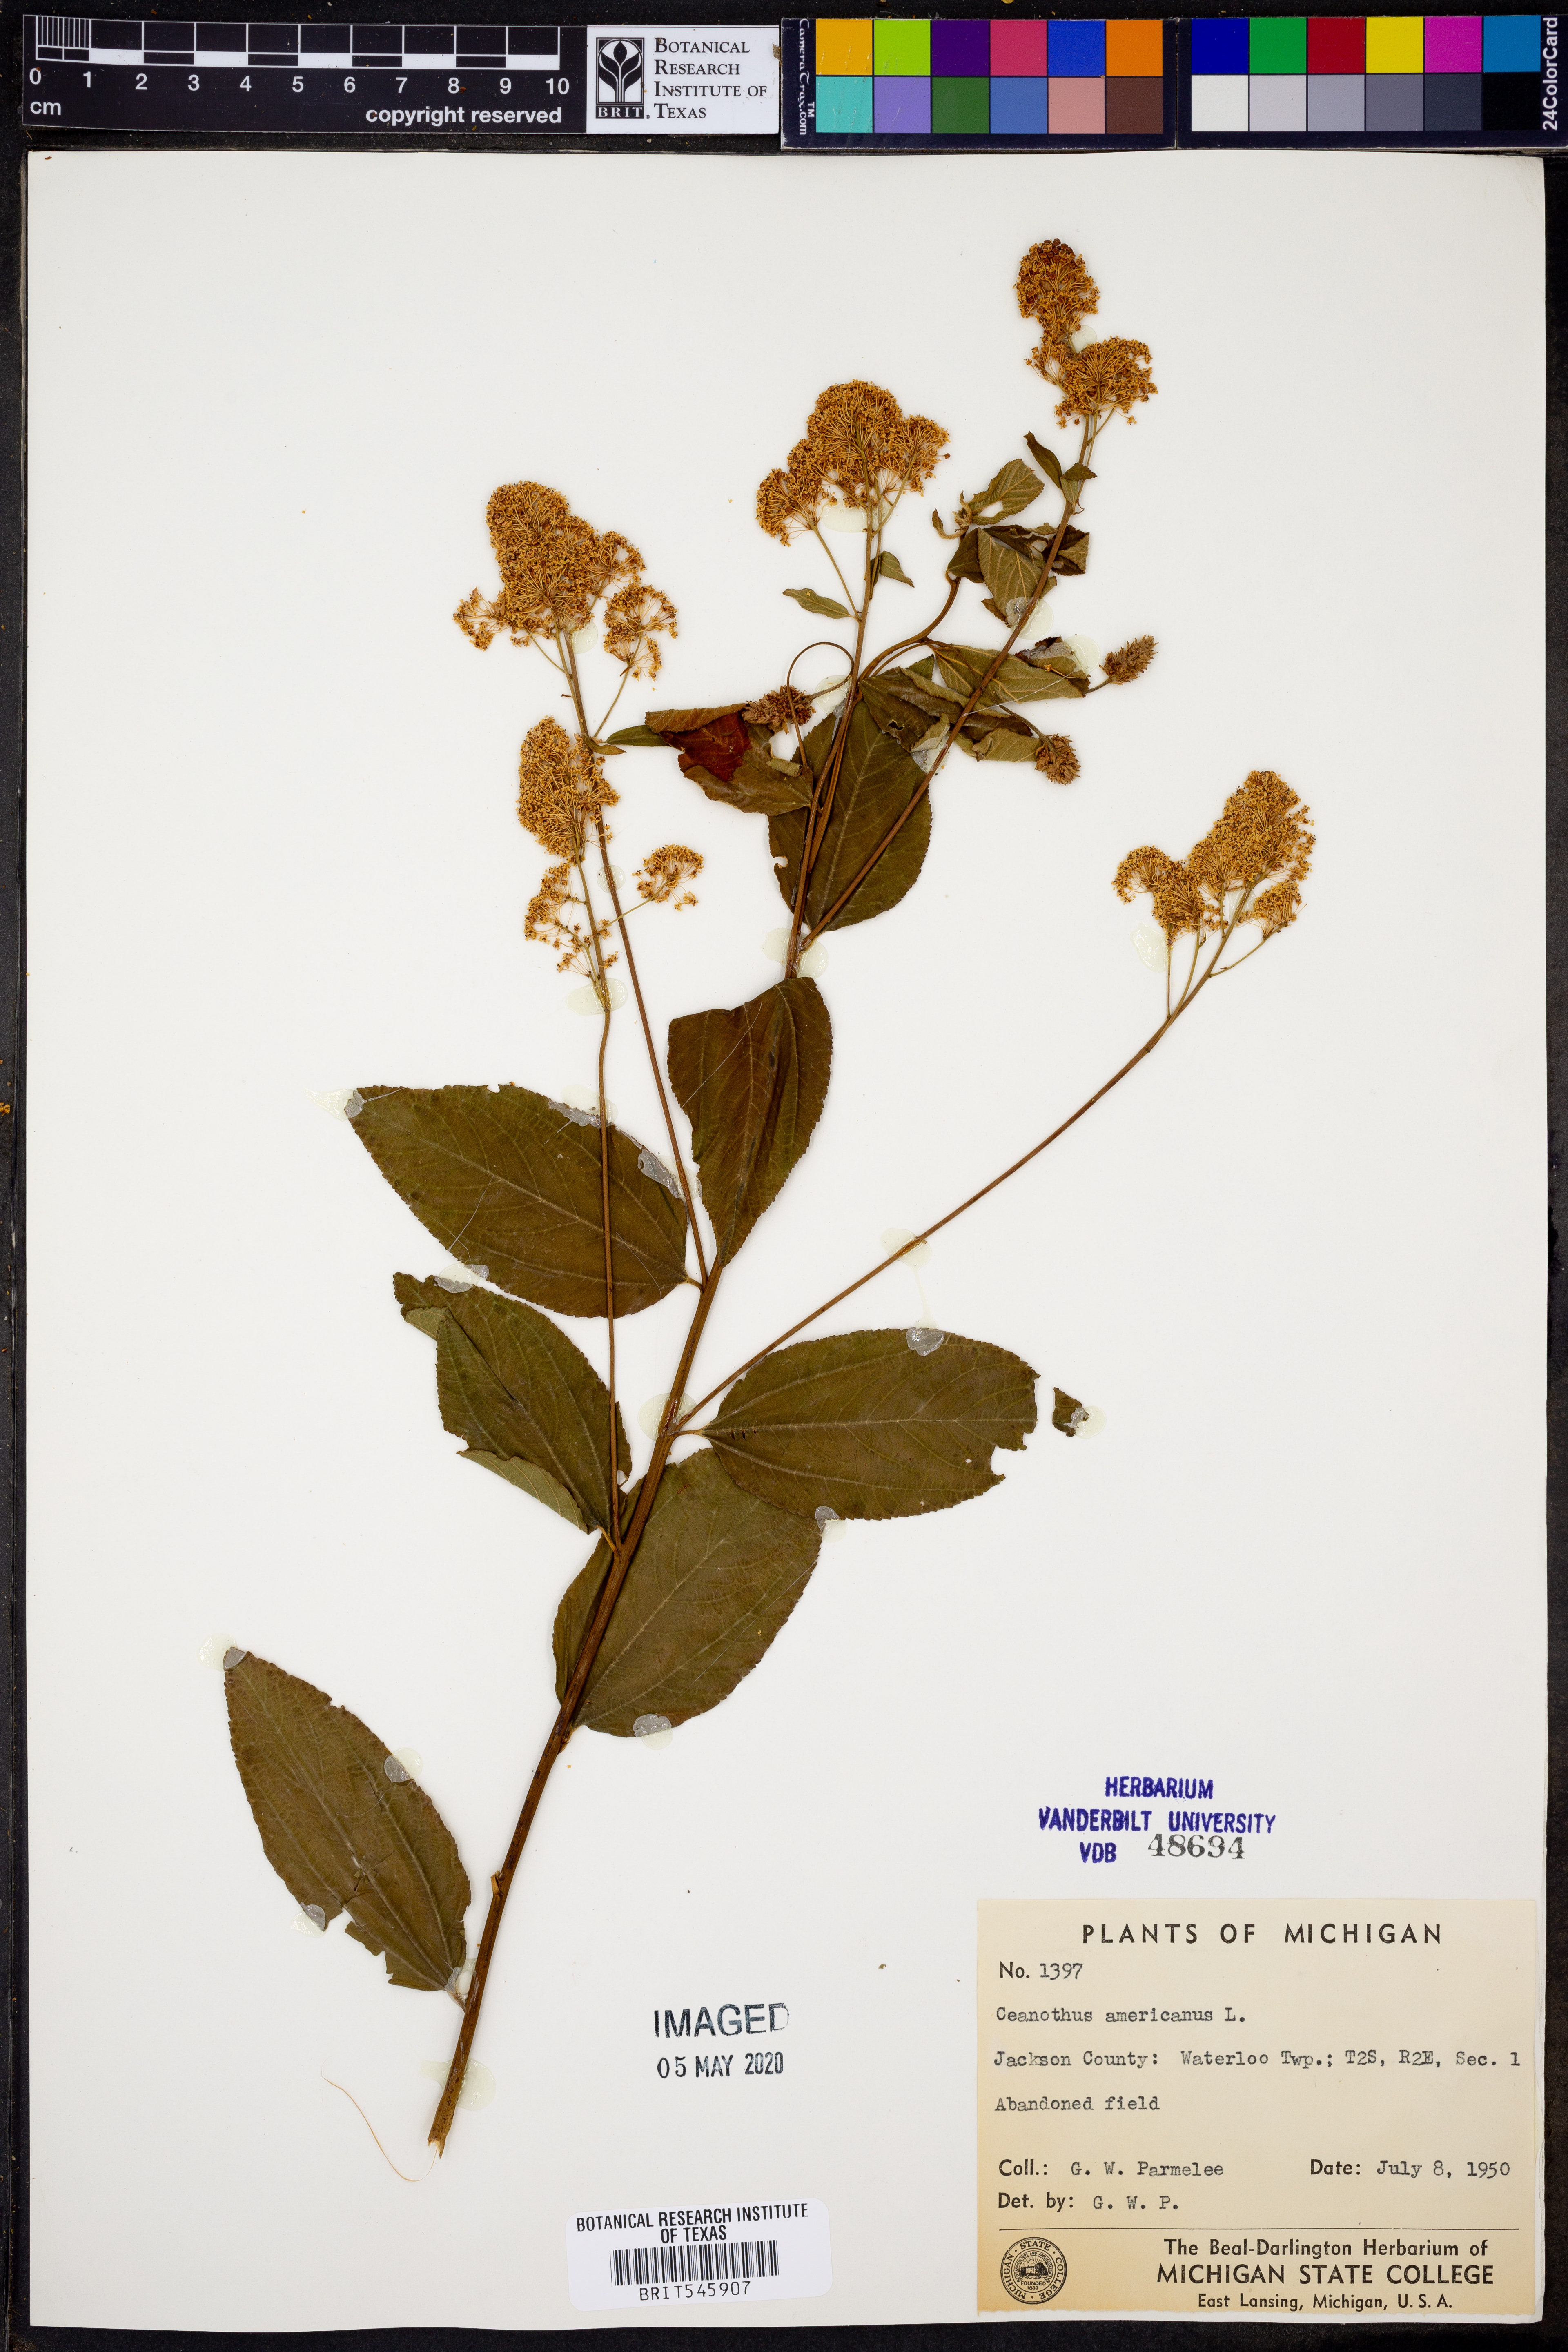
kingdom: Plantae
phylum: Tracheophyta
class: Magnoliopsida
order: Rosales
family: Rhamnaceae
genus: Ceanothus
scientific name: Ceanothus americanus
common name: Redroot
